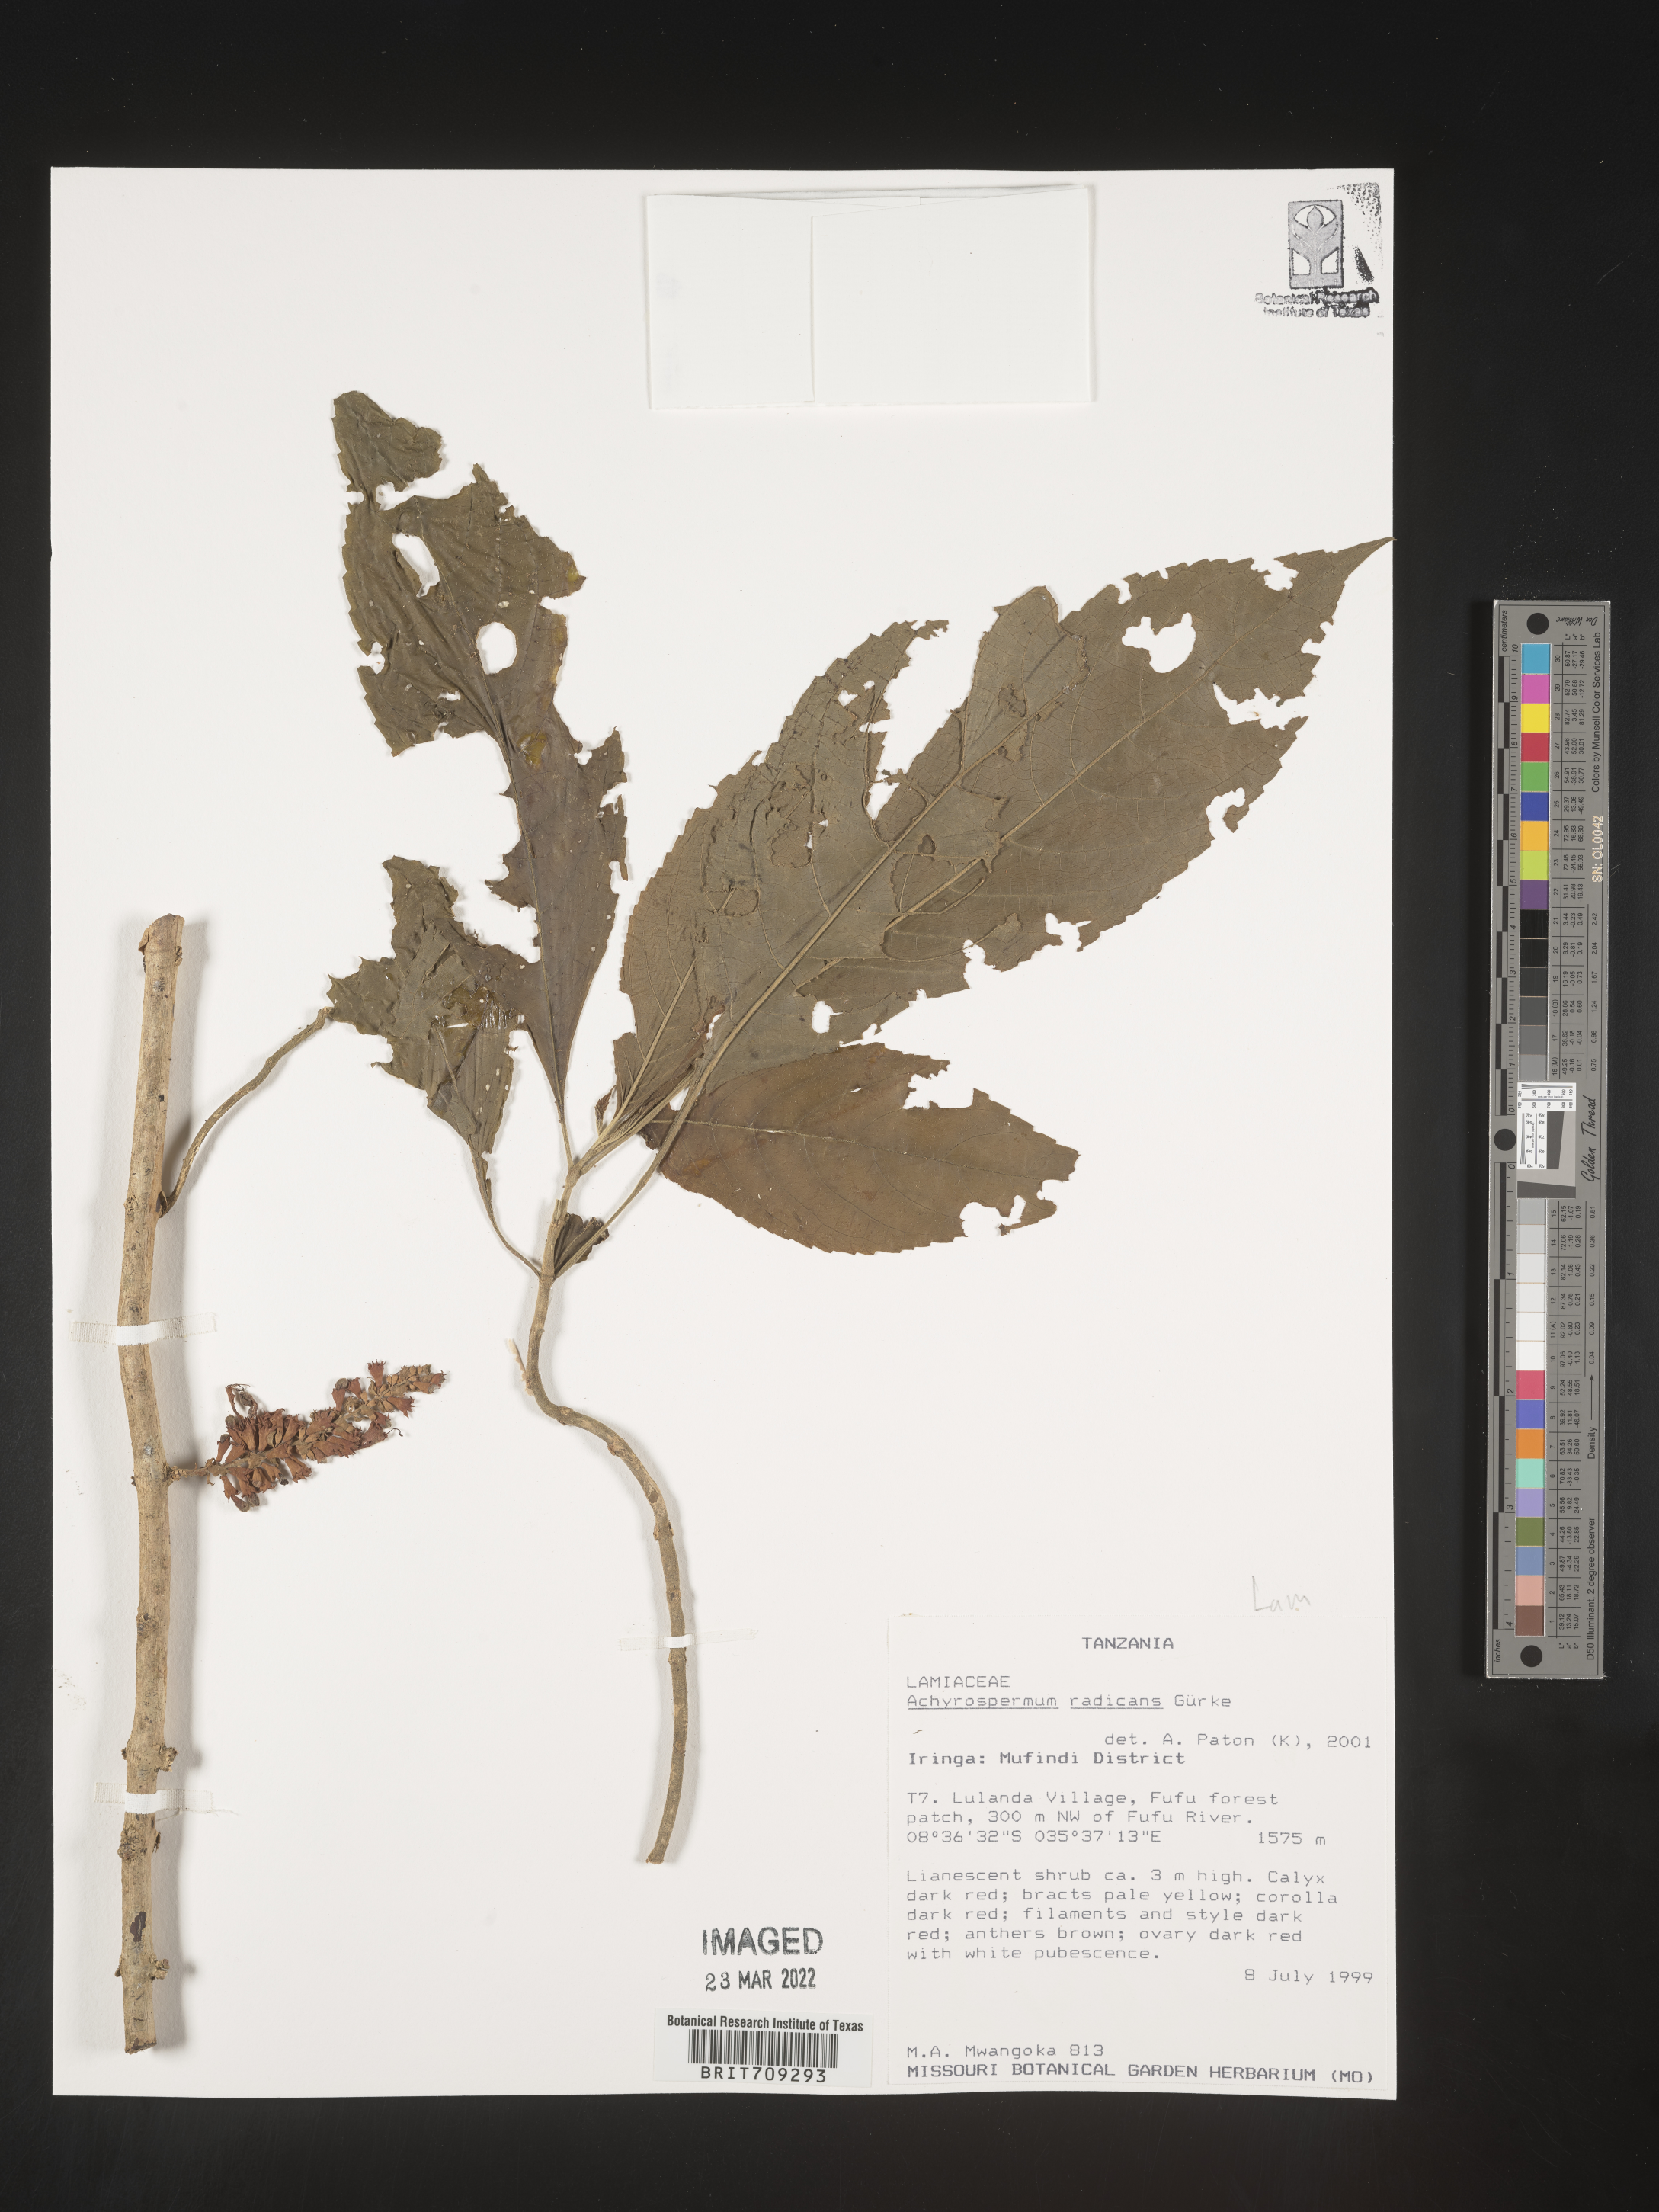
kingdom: Plantae
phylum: Tracheophyta
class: Magnoliopsida
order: Lamiales
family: Lamiaceae
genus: Achyrospermum
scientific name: Achyrospermum
